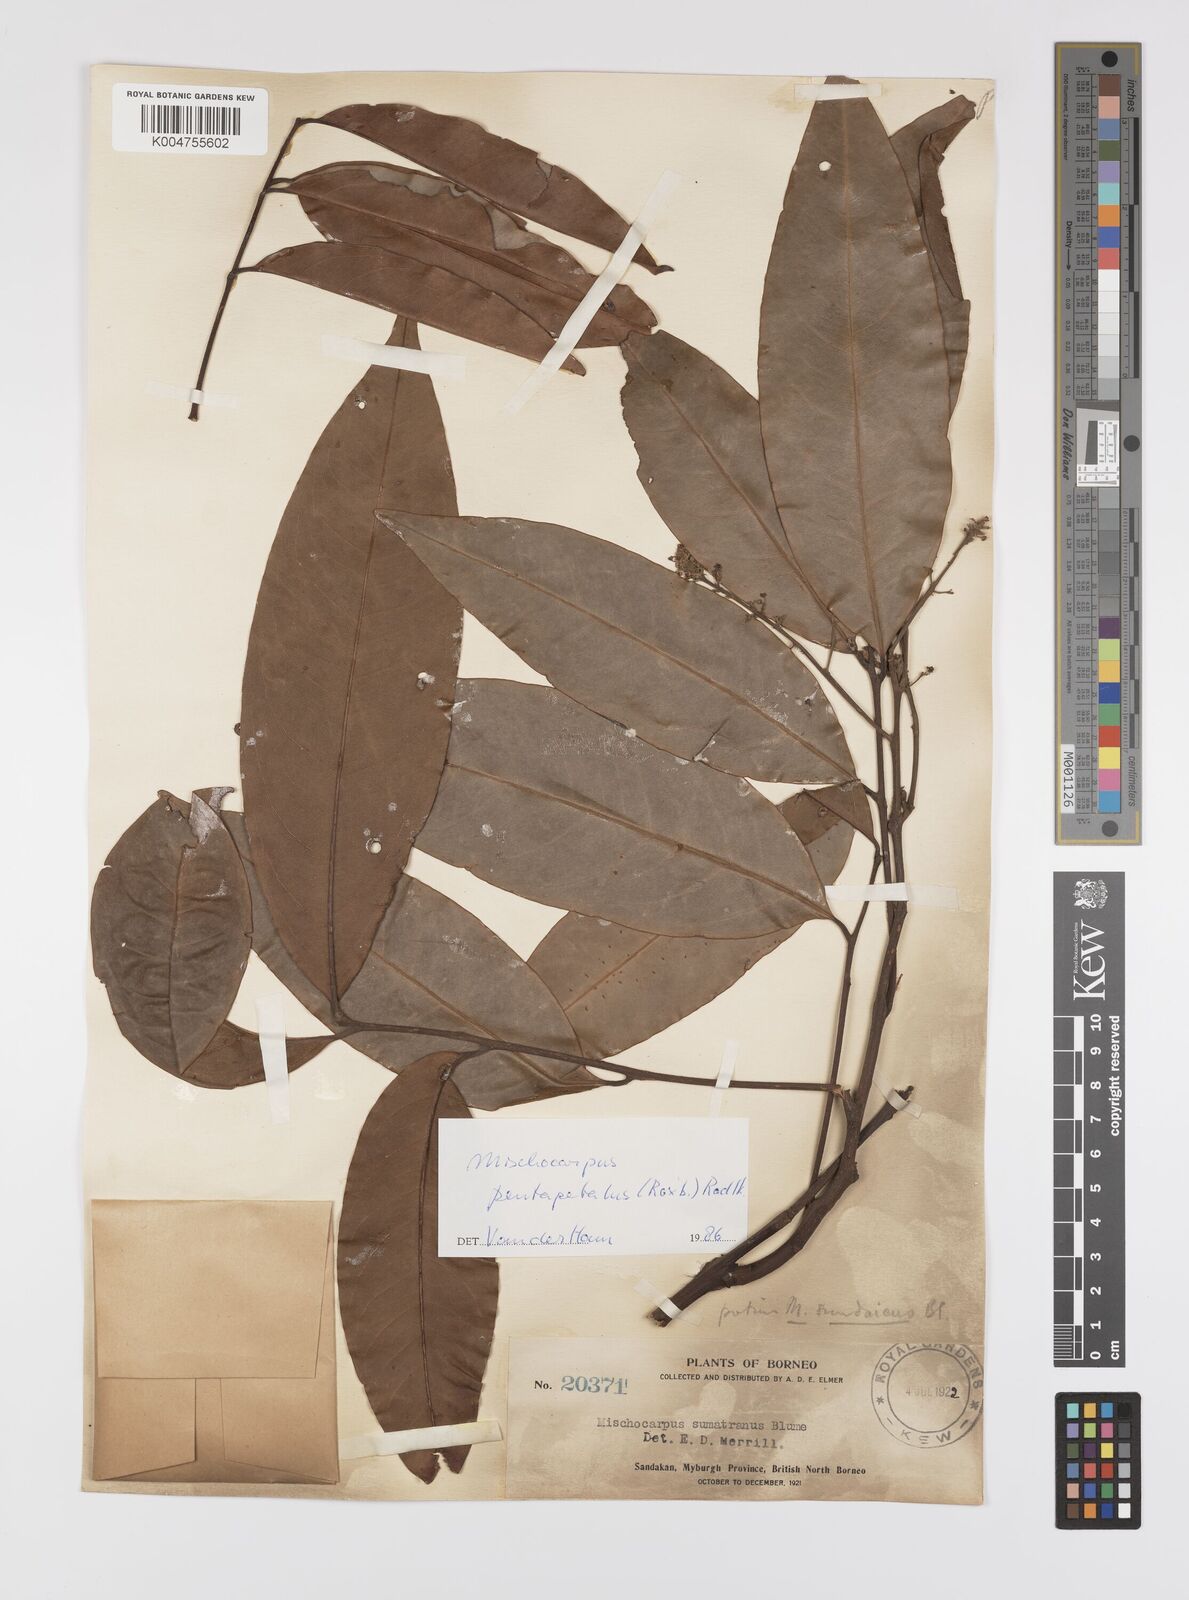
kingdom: Plantae
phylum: Tracheophyta
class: Magnoliopsida
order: Sapindales
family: Sapindaceae
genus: Mischocarpus
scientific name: Mischocarpus pentapetalus
